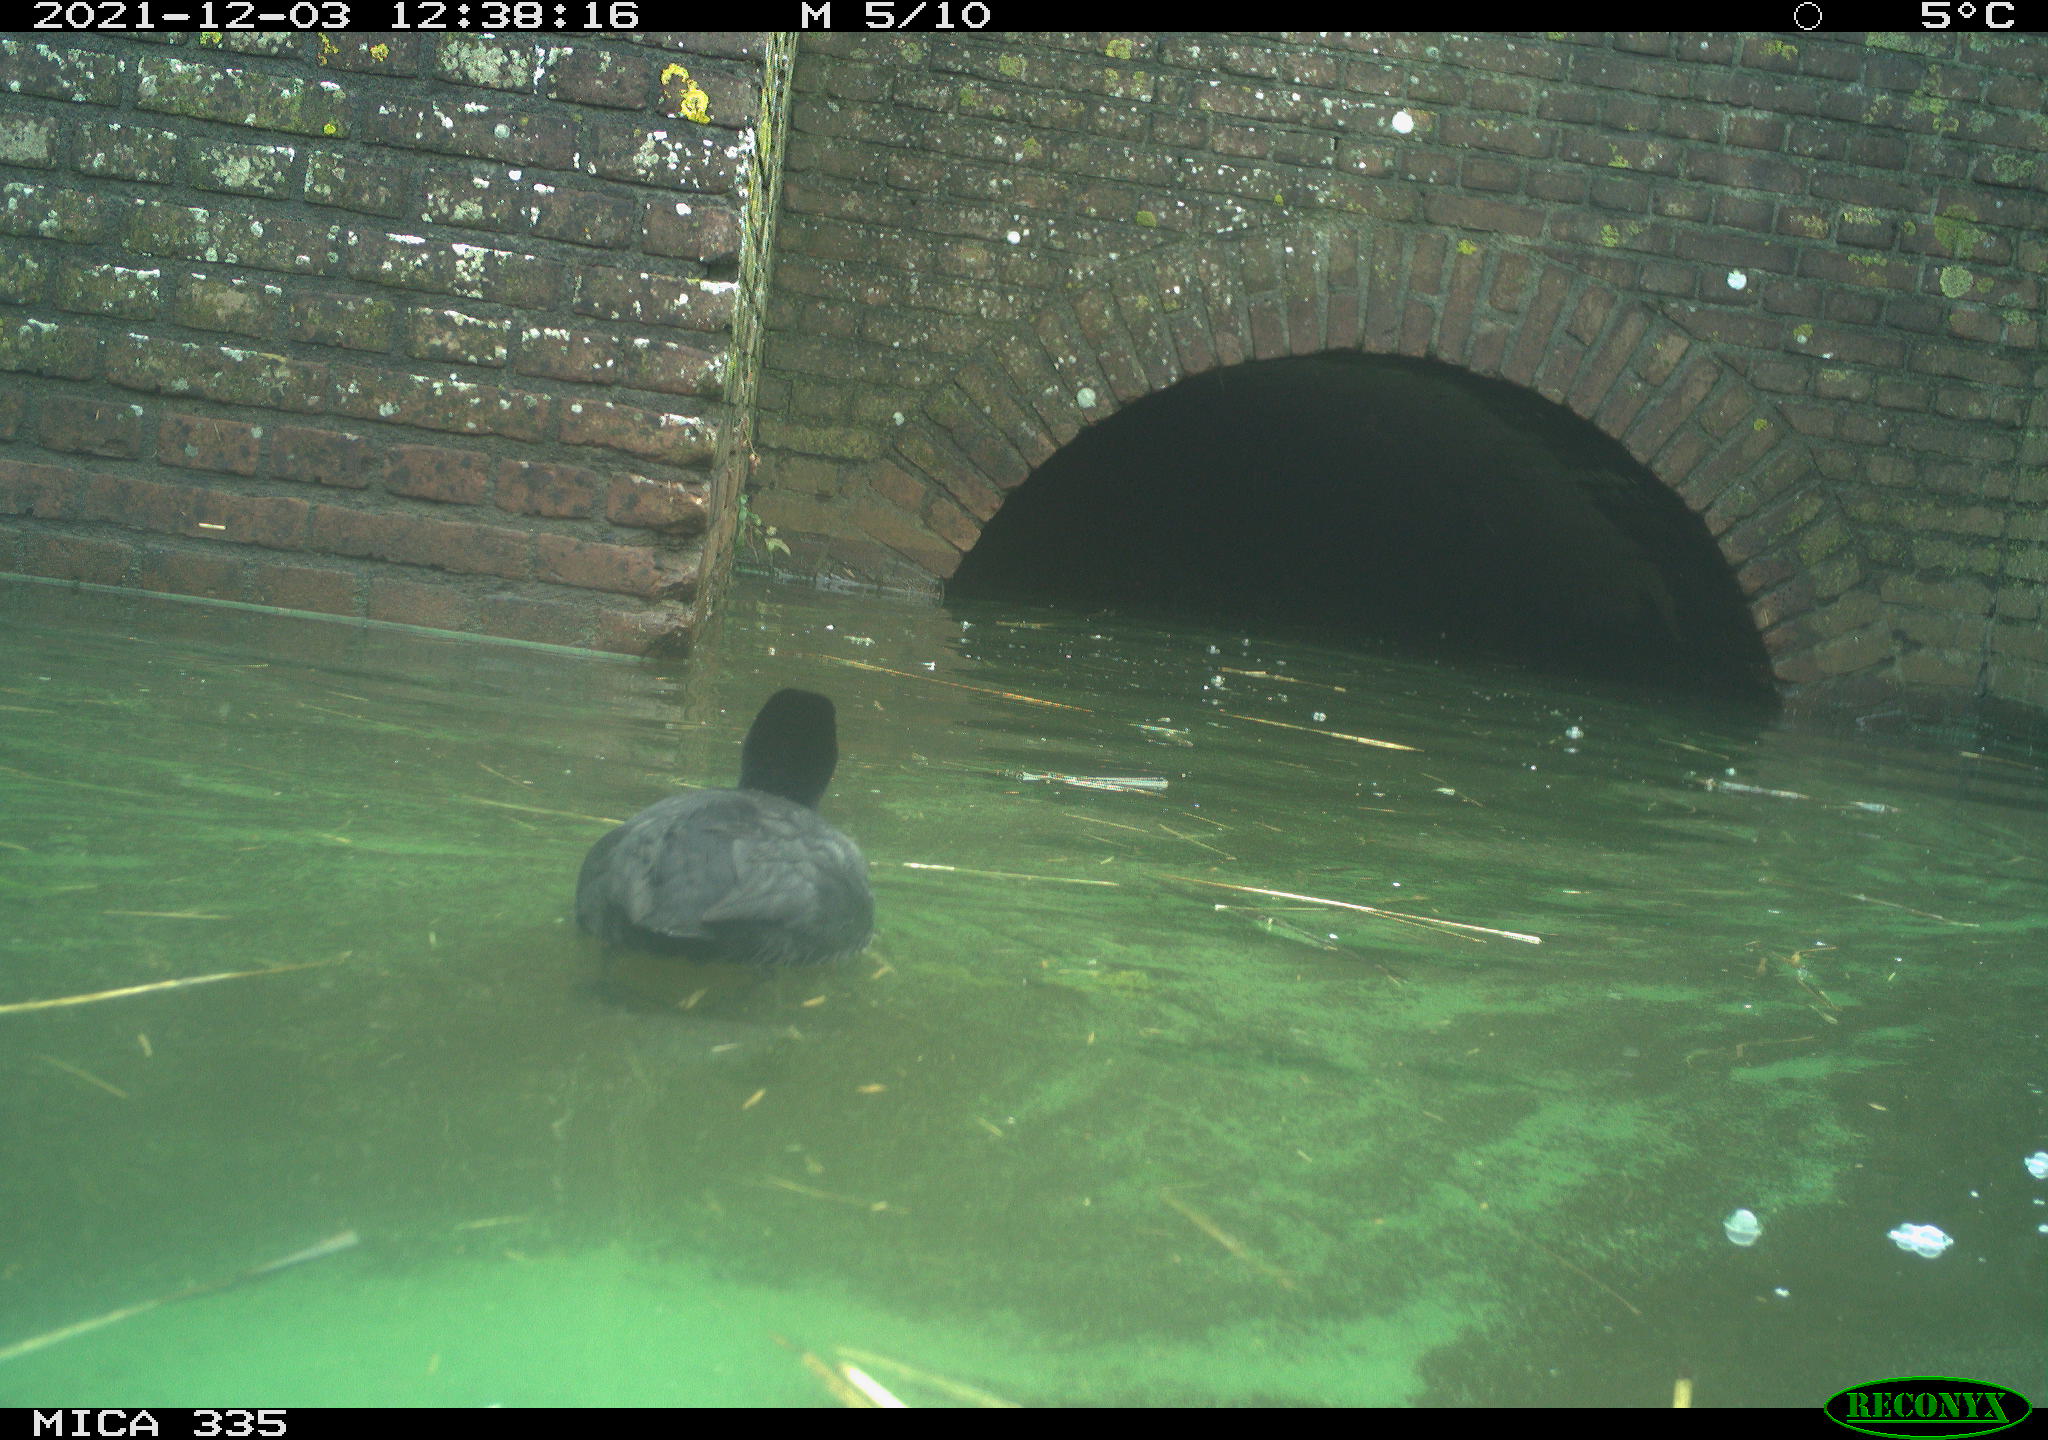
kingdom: Animalia
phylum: Chordata
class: Aves
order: Gruiformes
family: Rallidae
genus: Fulica
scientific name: Fulica atra
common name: Eurasian coot
